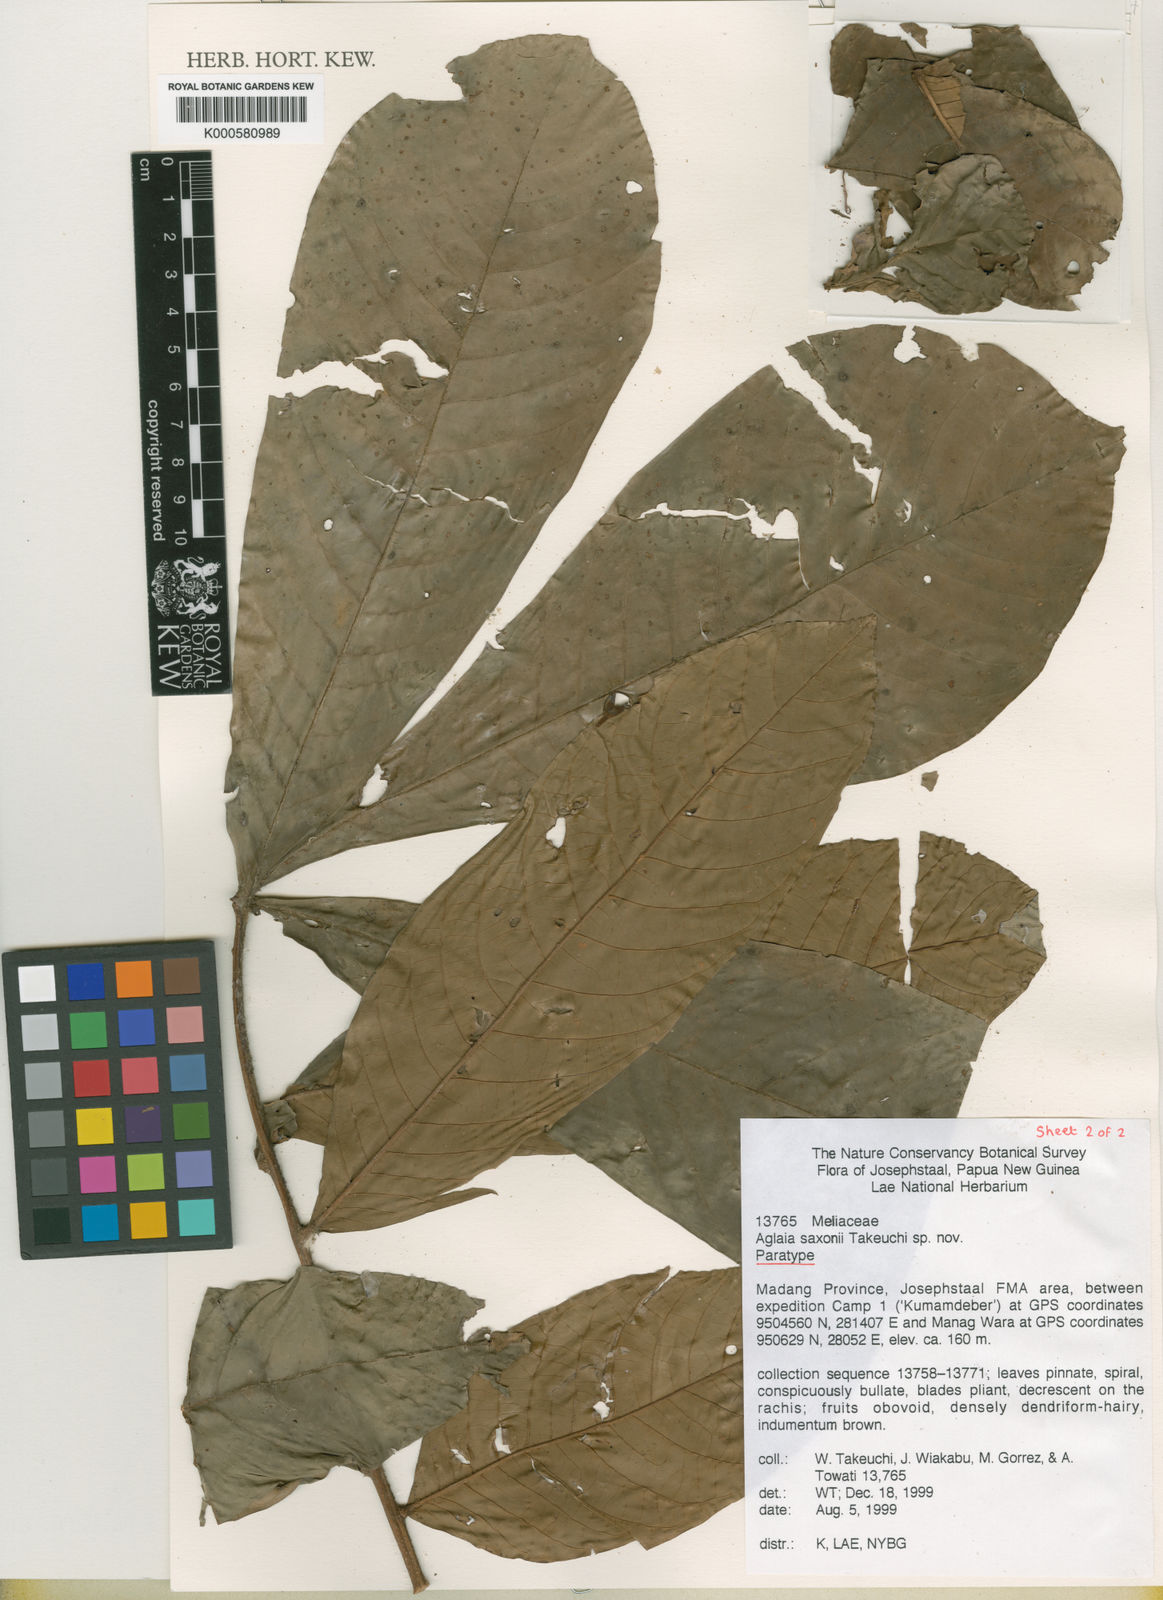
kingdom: Plantae
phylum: Tracheophyta
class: Magnoliopsida
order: Sapindales
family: Meliaceae
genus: Aglaia
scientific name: Aglaia saxonii
